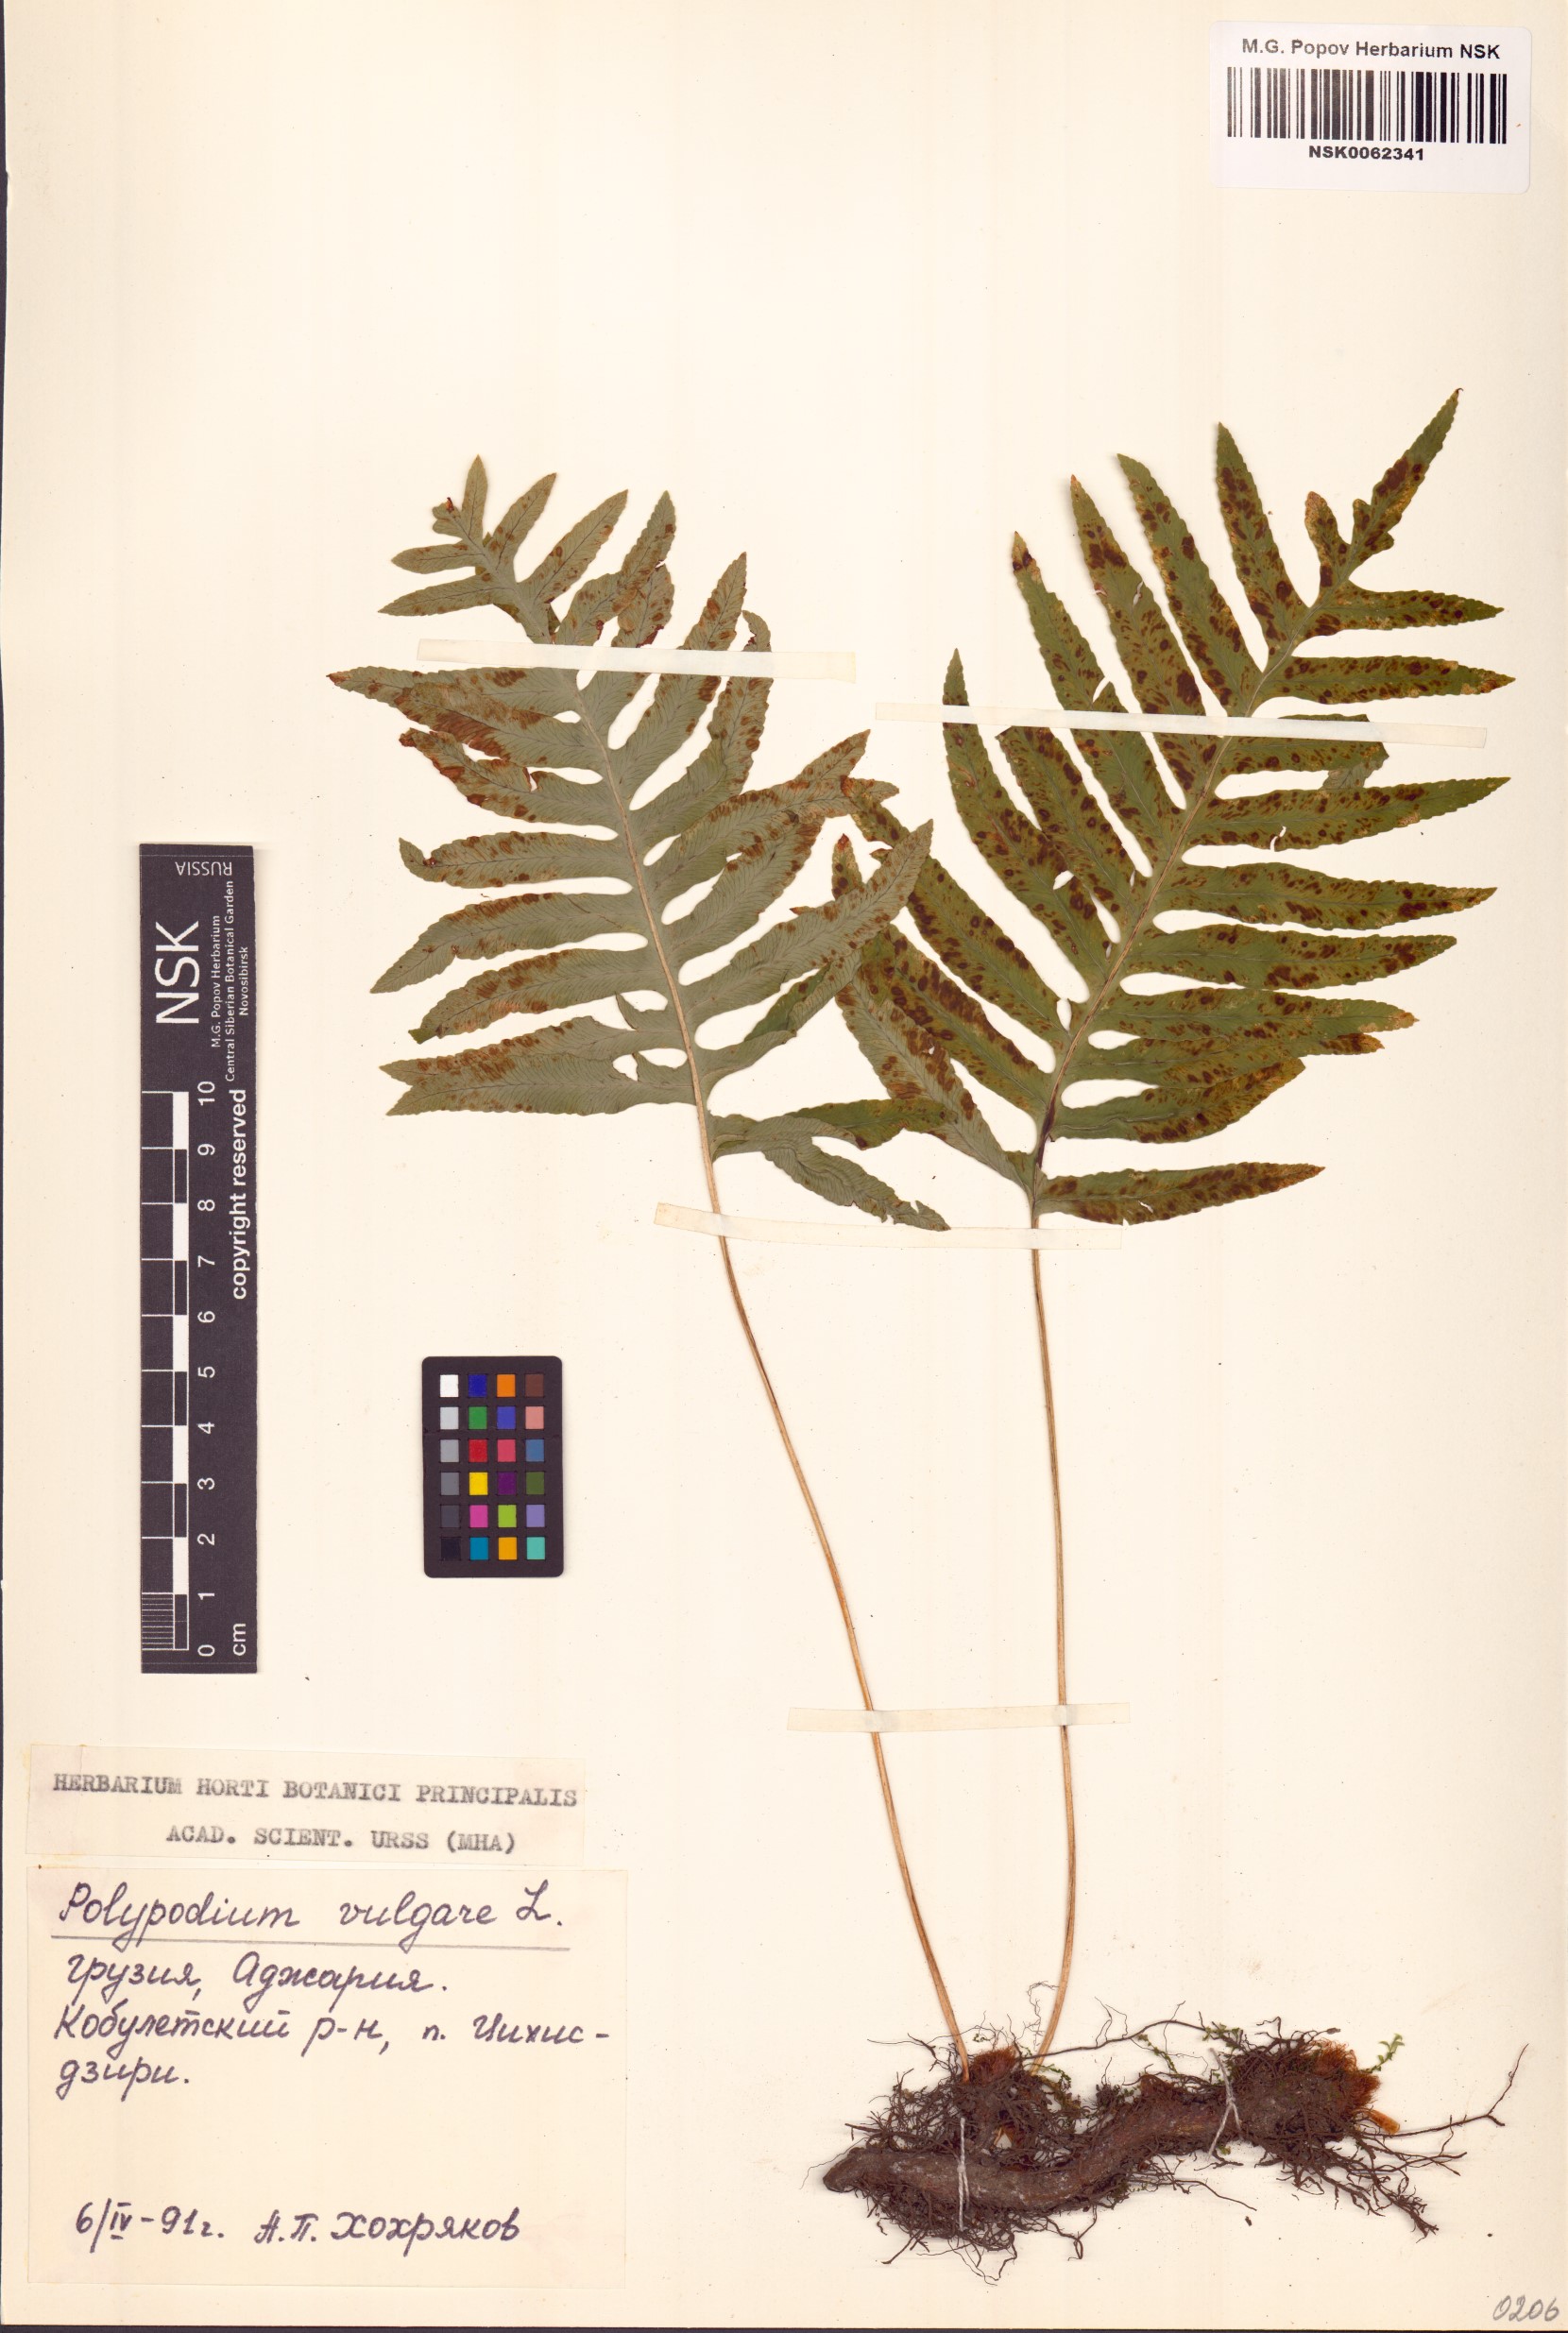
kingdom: Plantae
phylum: Tracheophyta
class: Polypodiopsida
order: Polypodiales
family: Polypodiaceae
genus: Polypodium
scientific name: Polypodium vulgare
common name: Common polypody
